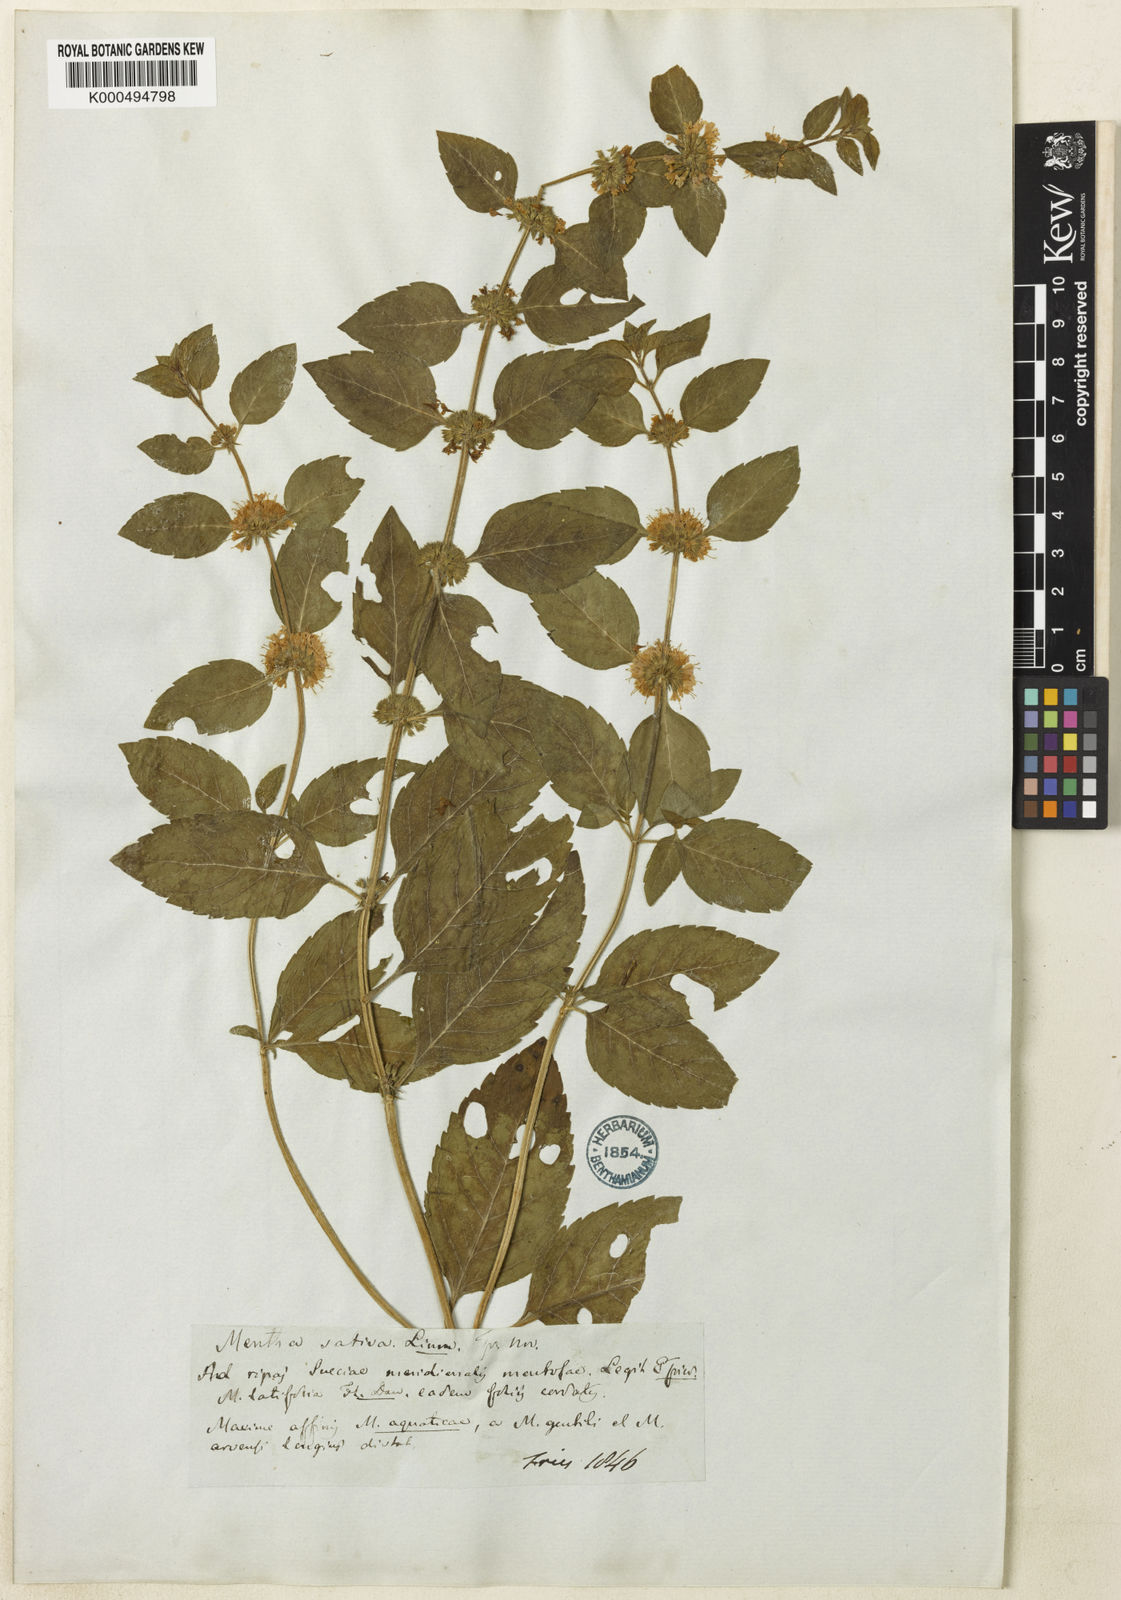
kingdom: Plantae
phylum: Tracheophyta
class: Magnoliopsida
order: Lamiales
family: Lamiaceae
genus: Mentha
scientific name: Mentha verticillata
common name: Mint
